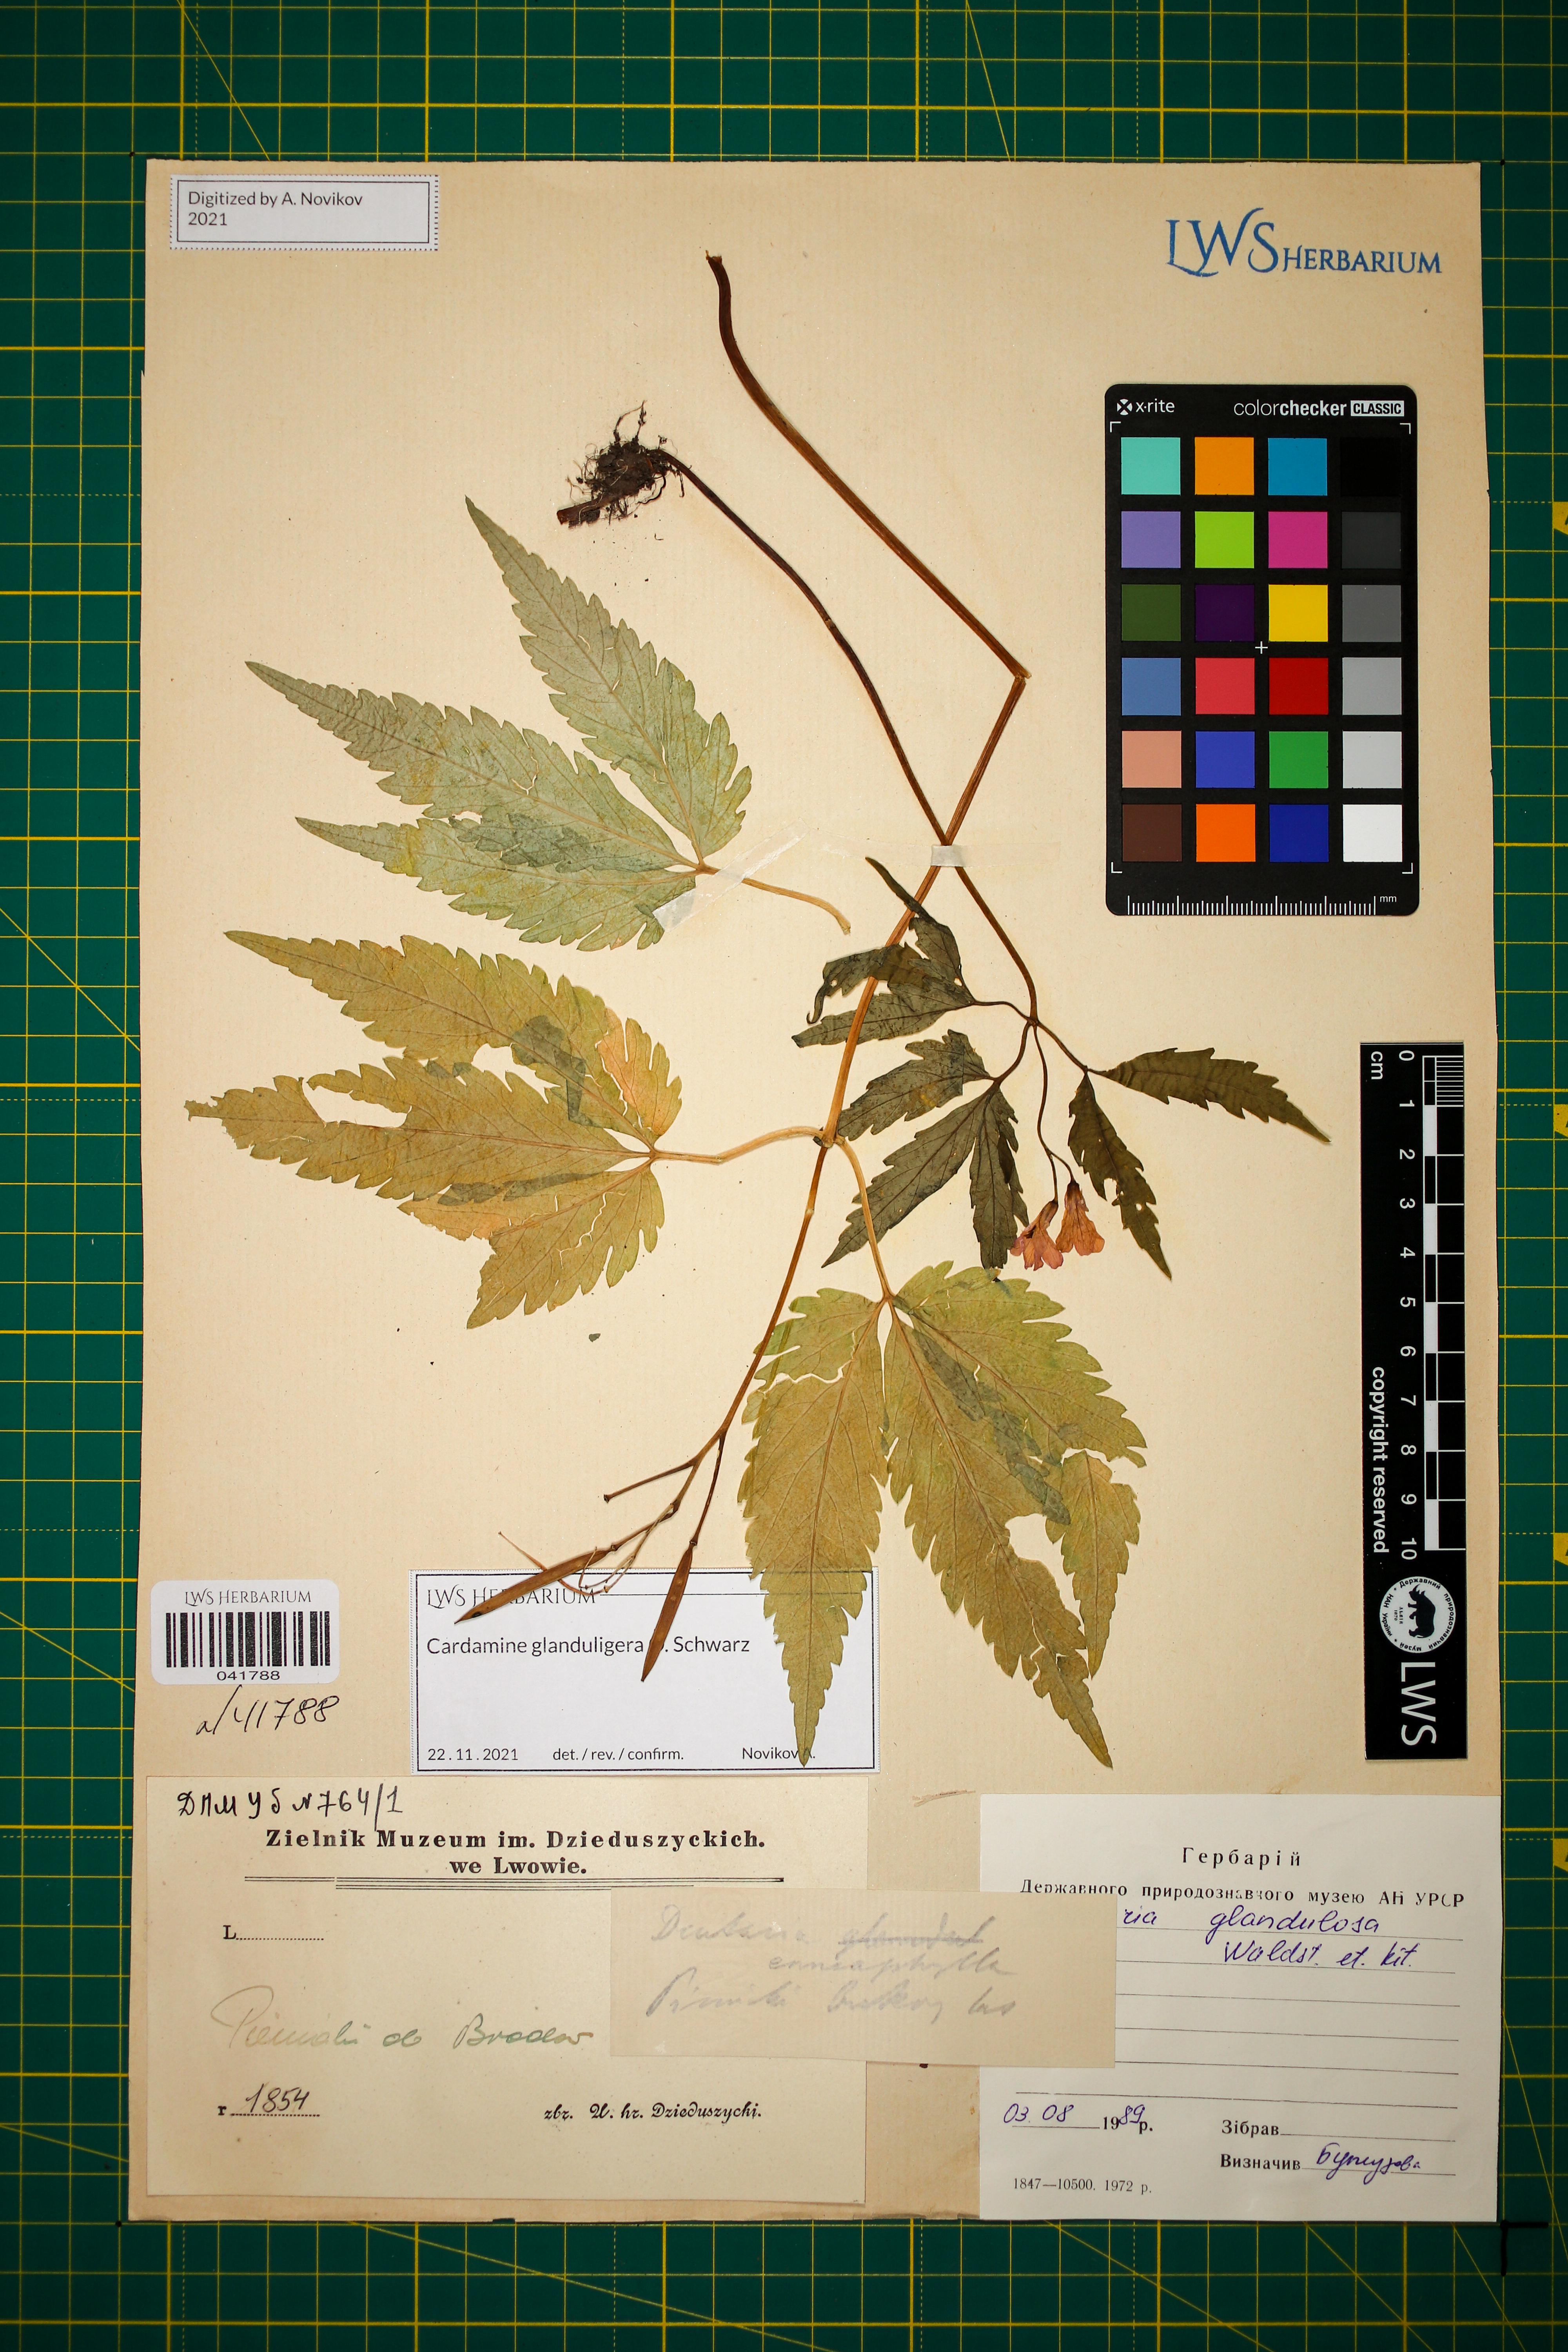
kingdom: Plantae
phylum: Tracheophyta
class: Magnoliopsida
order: Brassicales
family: Brassicaceae
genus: Cardamine
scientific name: Cardamine glanduligera
